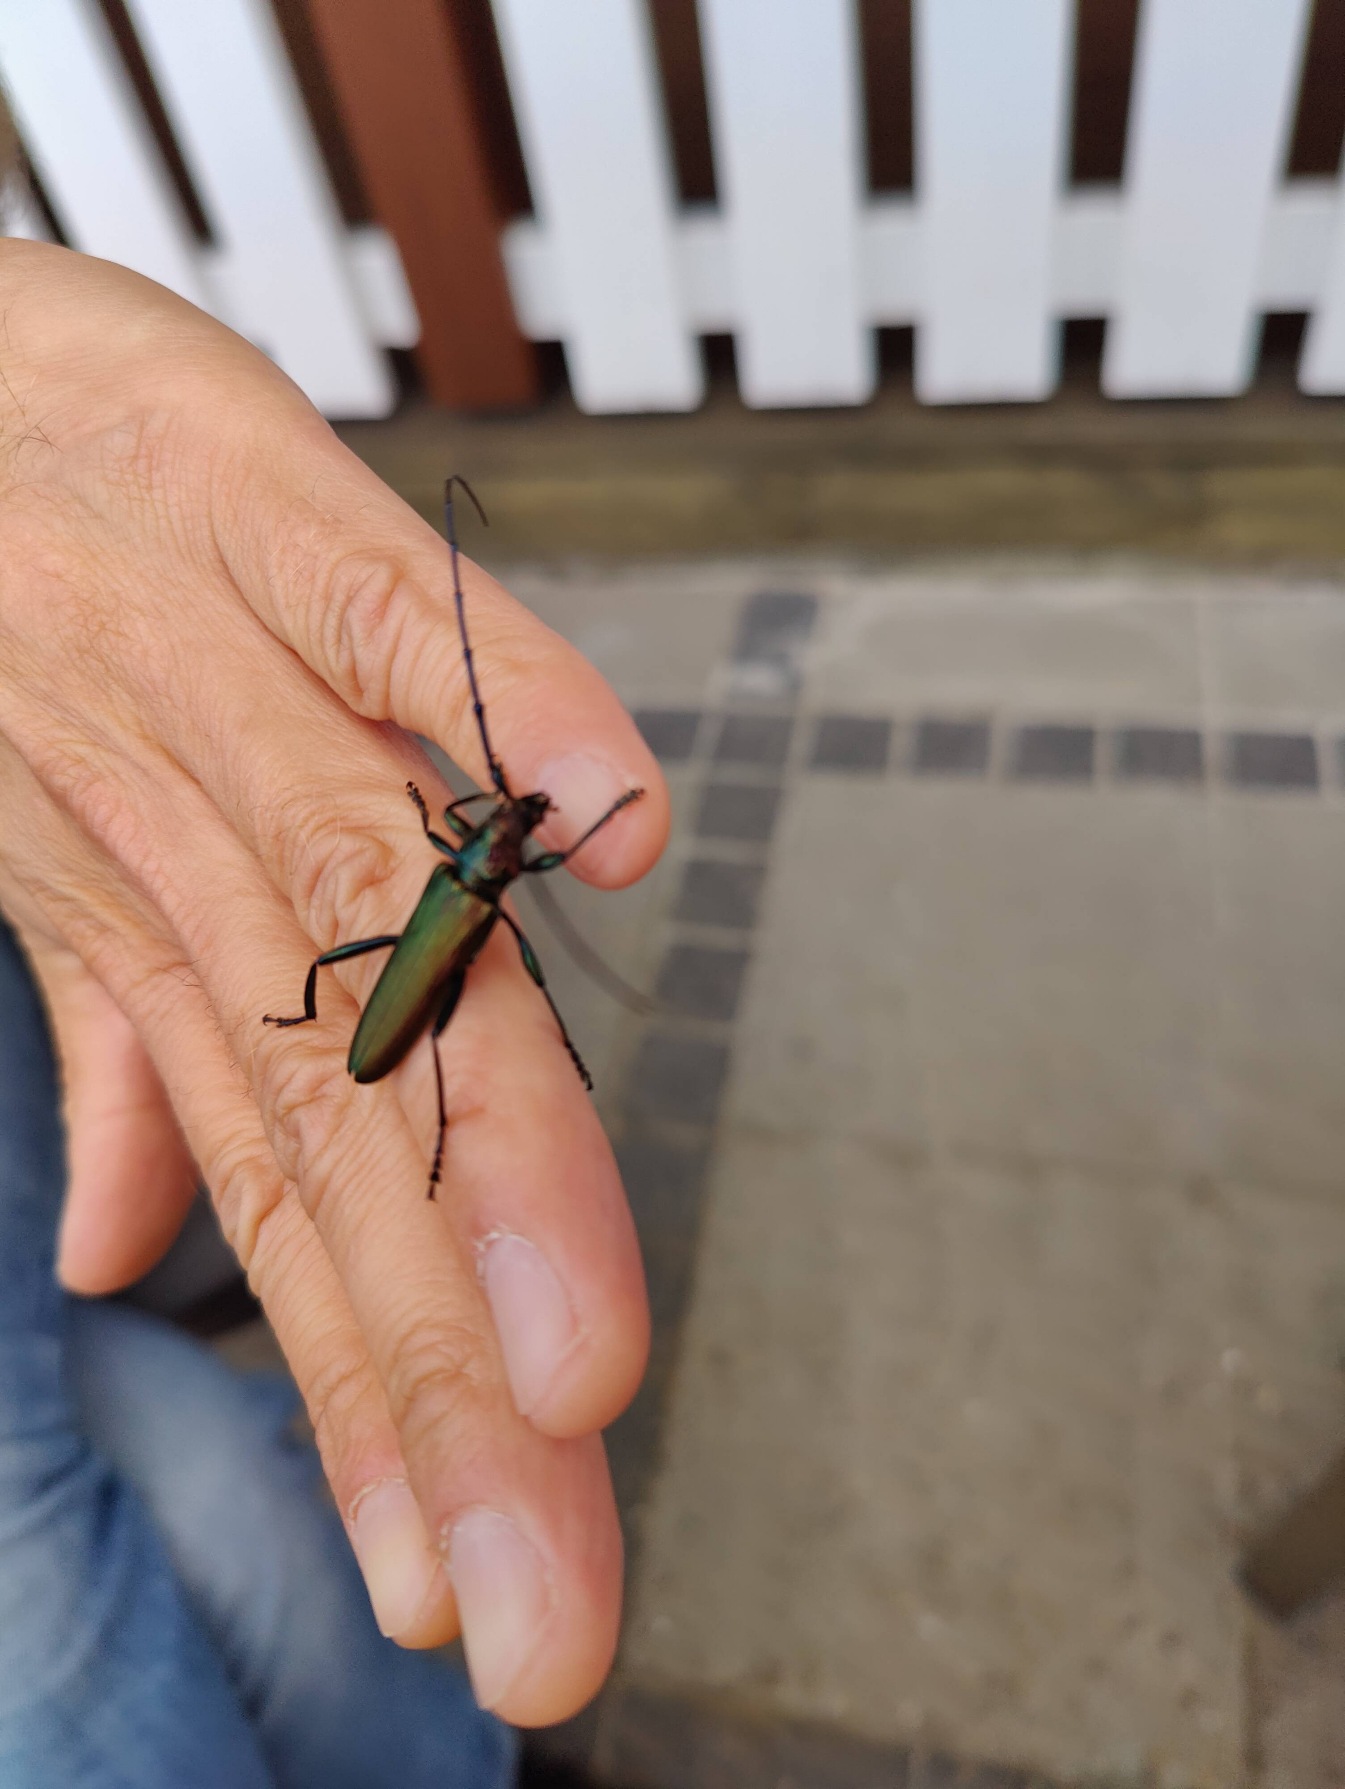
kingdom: Animalia
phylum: Arthropoda
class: Insecta
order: Coleoptera
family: Cerambycidae
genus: Aromia
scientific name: Aromia moschata
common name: Moskusbuk
